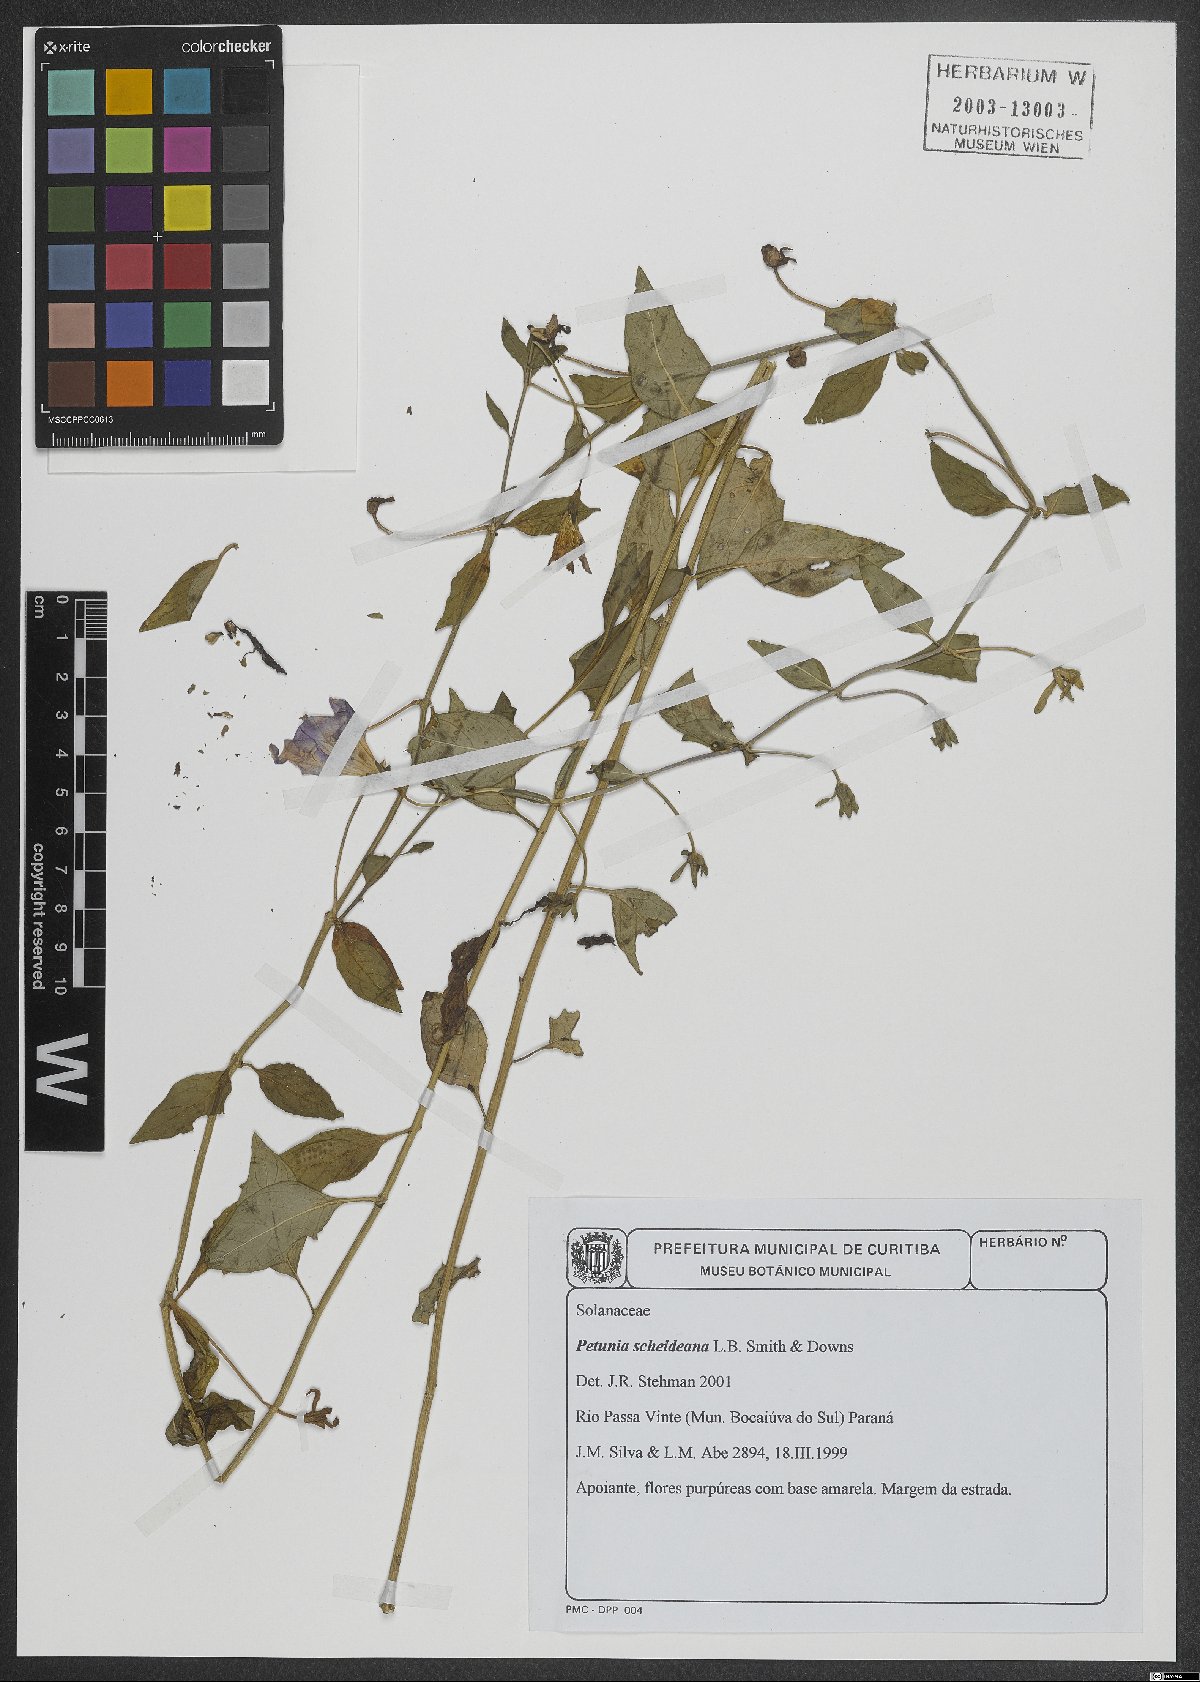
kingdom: Plantae
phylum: Tracheophyta
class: Magnoliopsida
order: Solanales
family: Solanaceae
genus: Petunia
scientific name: Petunia scheideana
